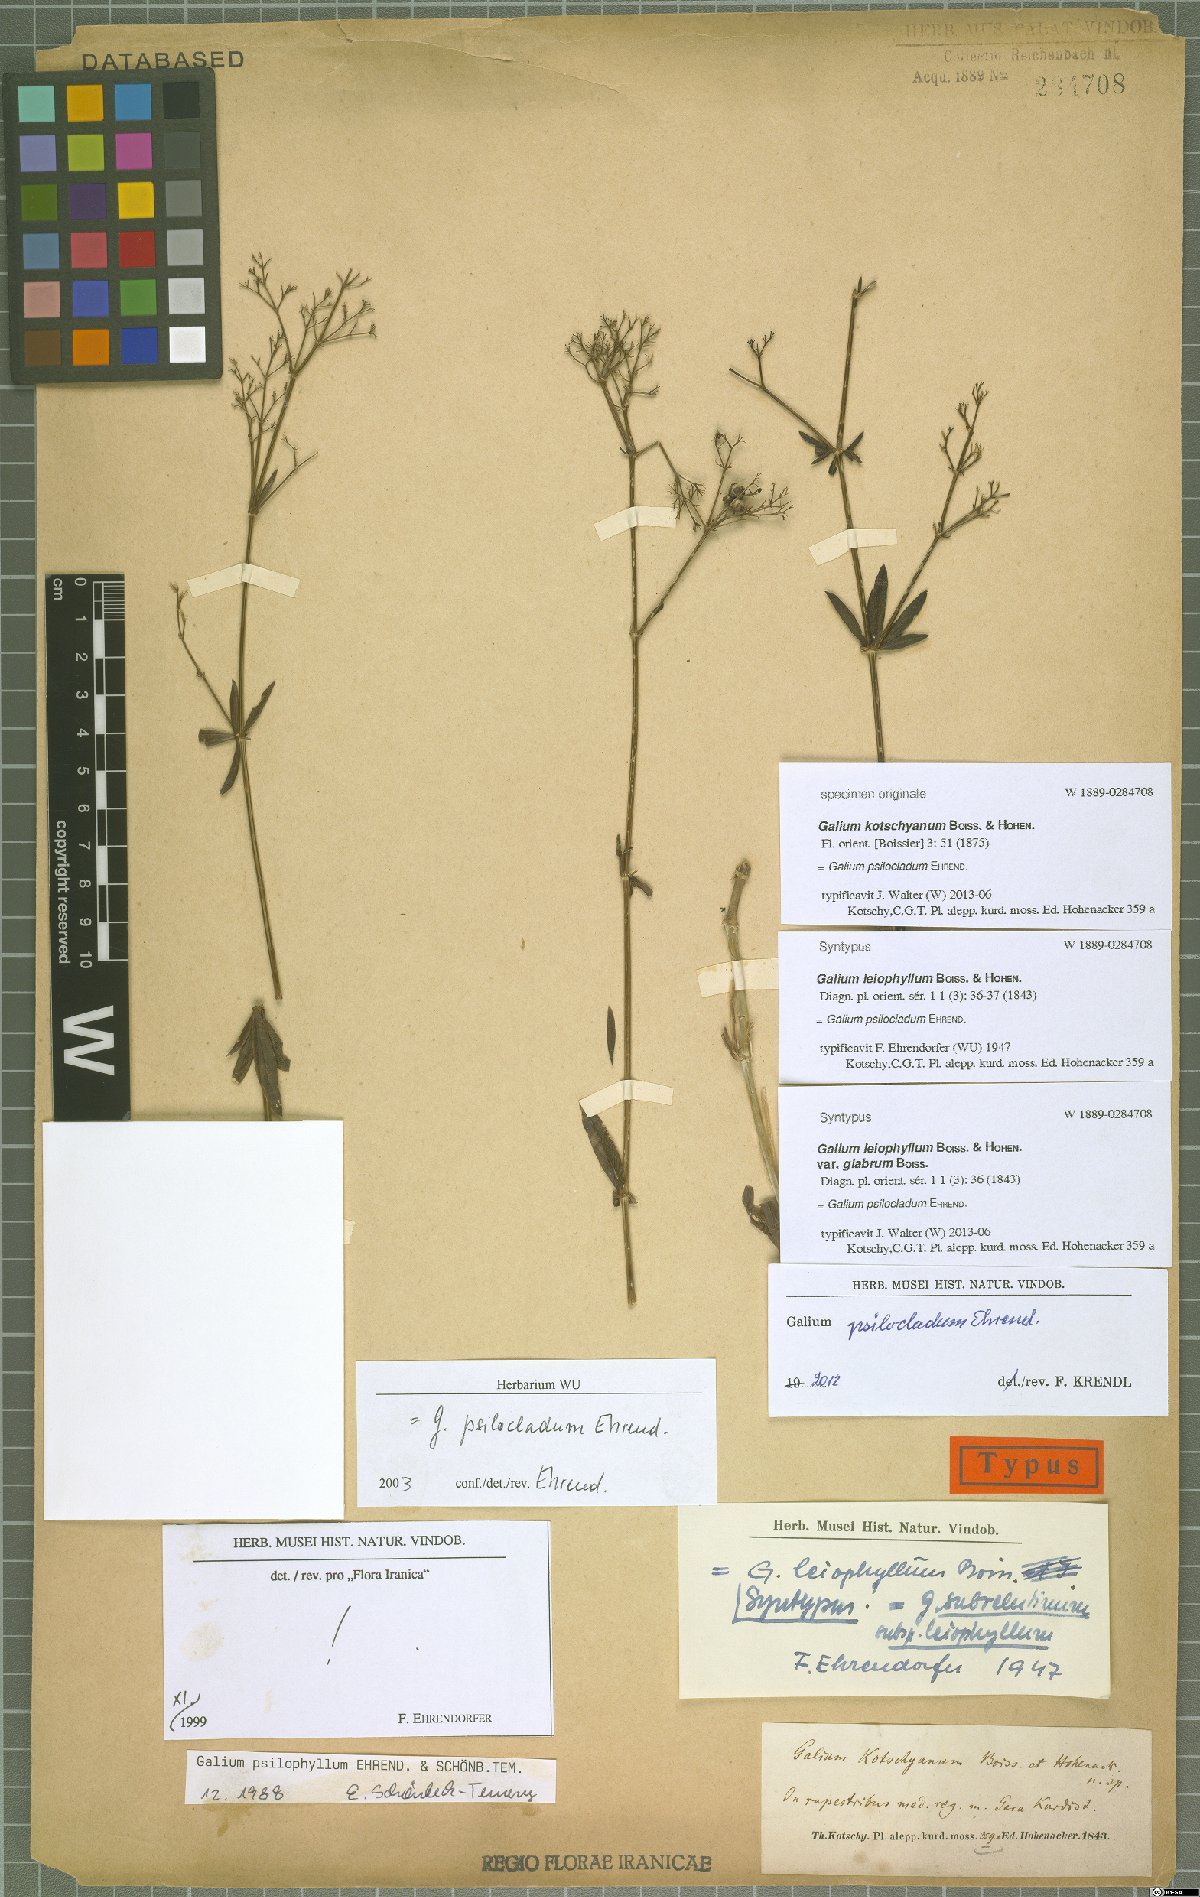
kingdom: Plantae
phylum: Tracheophyta
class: Magnoliopsida
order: Gentianales
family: Rubiaceae
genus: Galium
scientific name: Galium psilocladum
